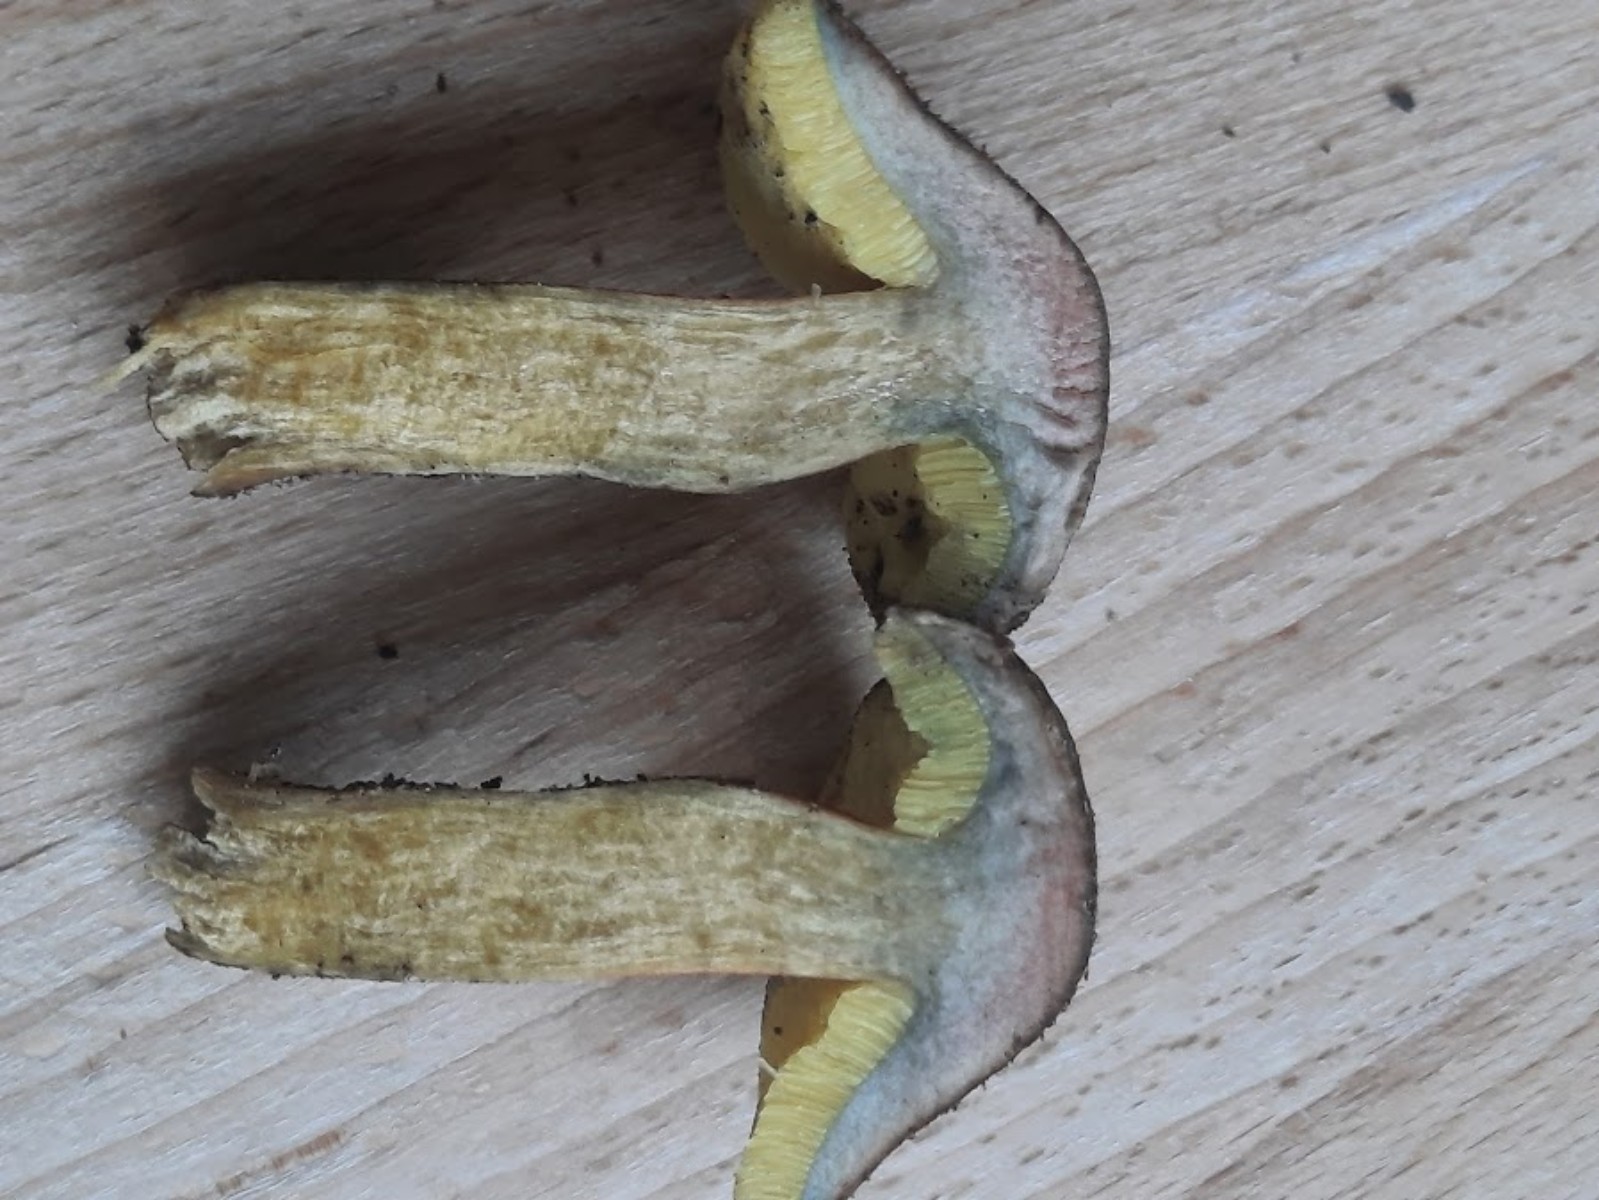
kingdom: Fungi
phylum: Basidiomycota
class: Agaricomycetes
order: Boletales
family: Boletaceae
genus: Hortiboletus
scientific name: Hortiboletus bubalinus
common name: aurora-rørhat
